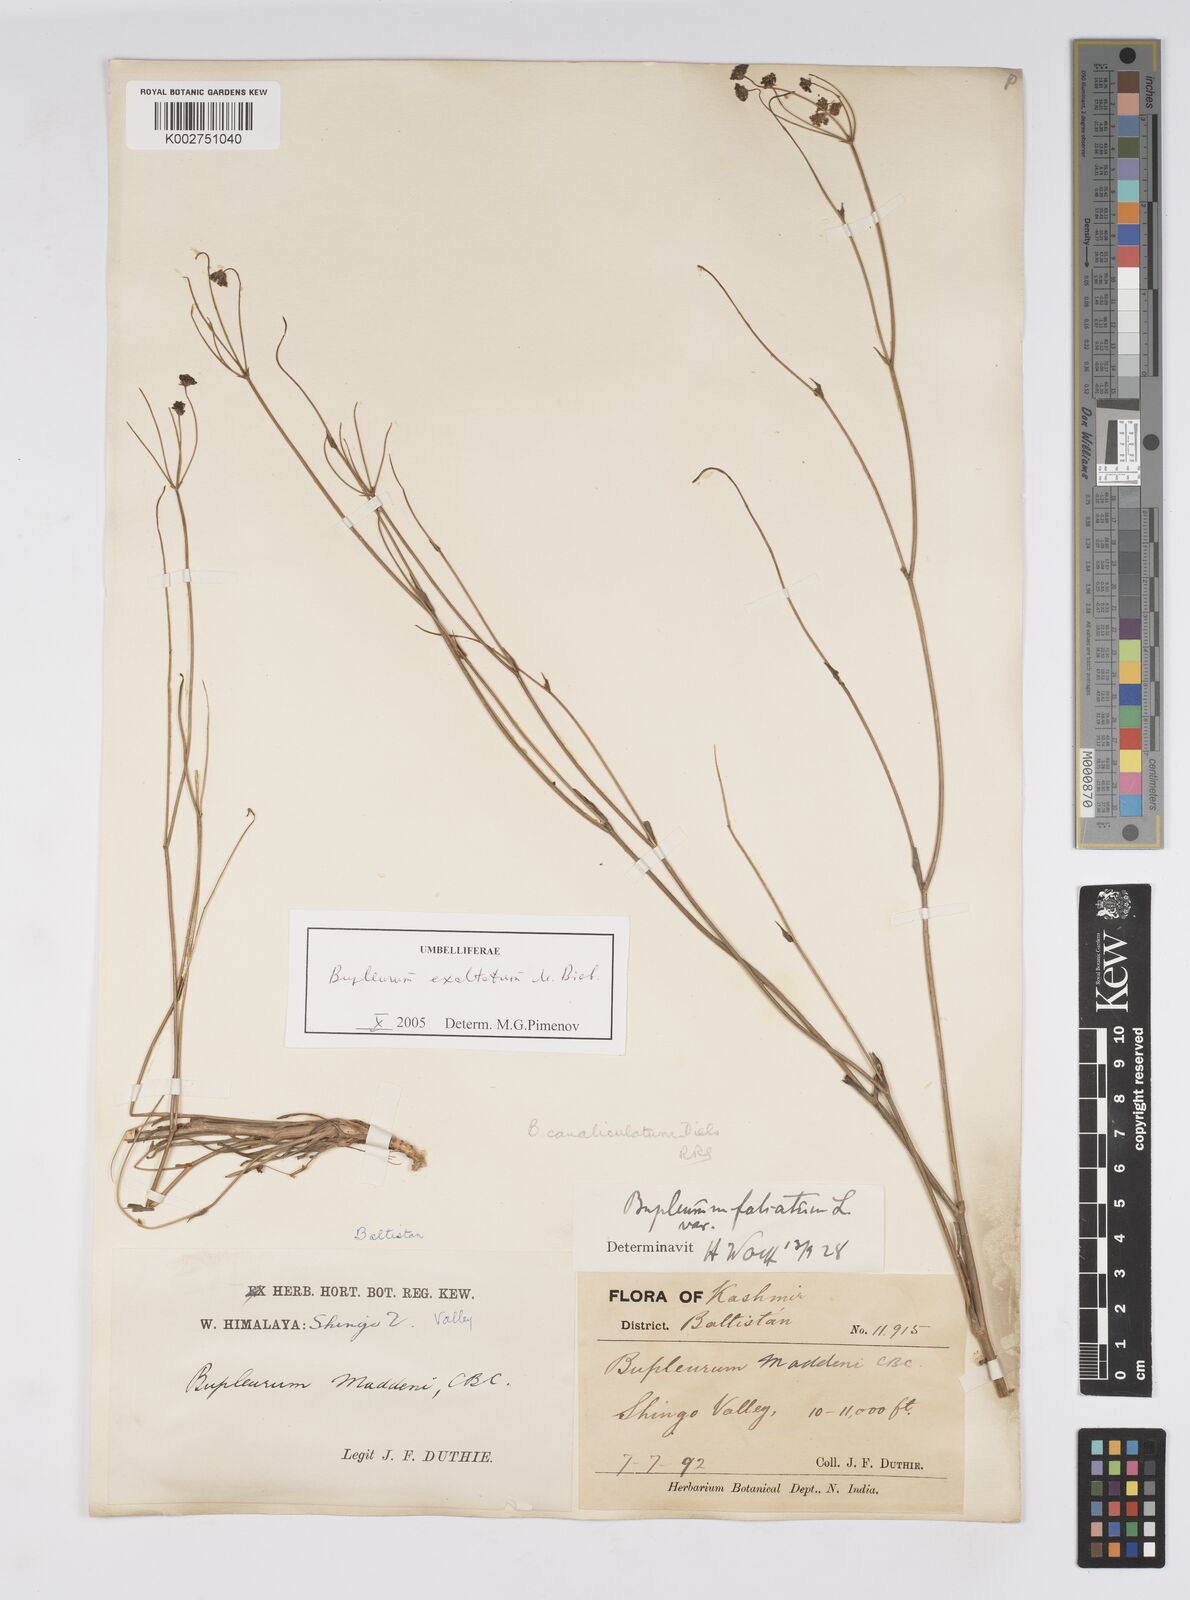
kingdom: Plantae
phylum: Tracheophyta
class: Magnoliopsida
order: Apiales
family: Apiaceae
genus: Bupleurum
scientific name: Bupleurum falcatum
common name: Sickle-leaved hare's-ear
